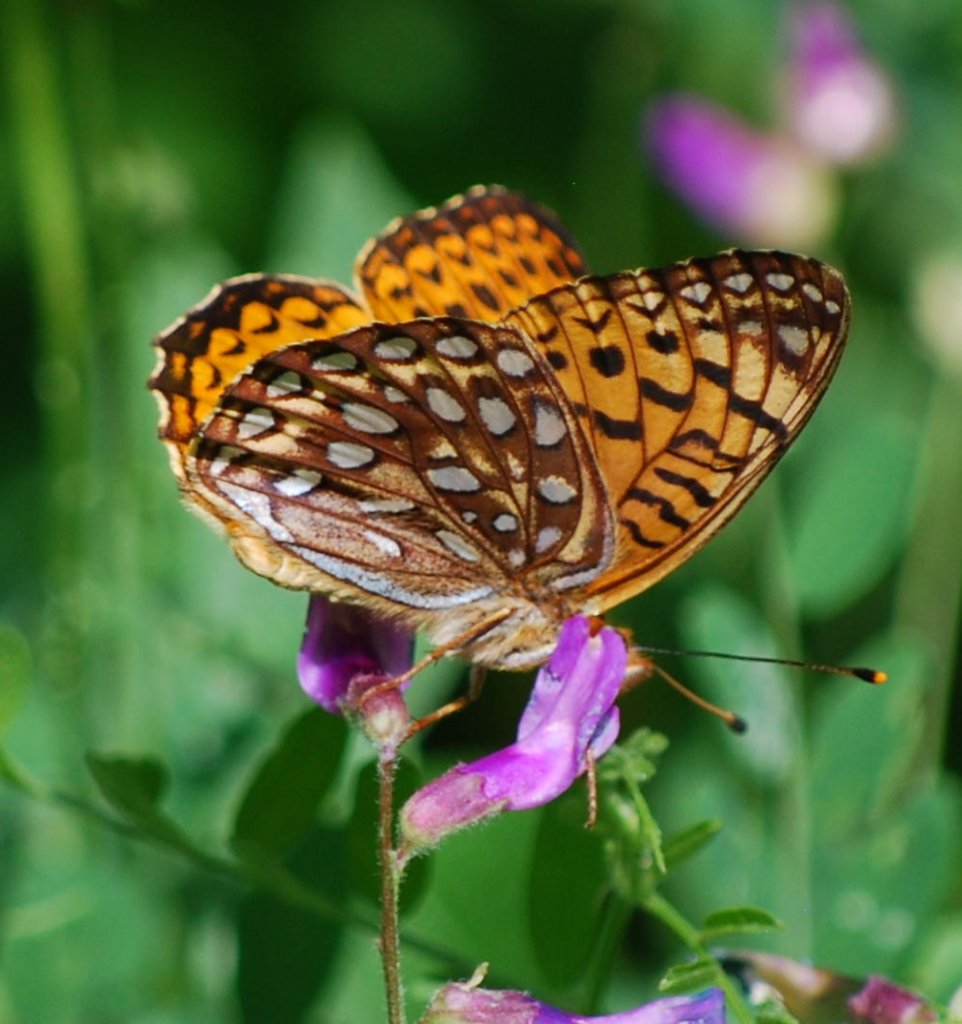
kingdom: Animalia
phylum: Arthropoda
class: Insecta
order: Lepidoptera
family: Nymphalidae
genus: Speyeria
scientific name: Speyeria atlantis
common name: Northwestern Fritillary
